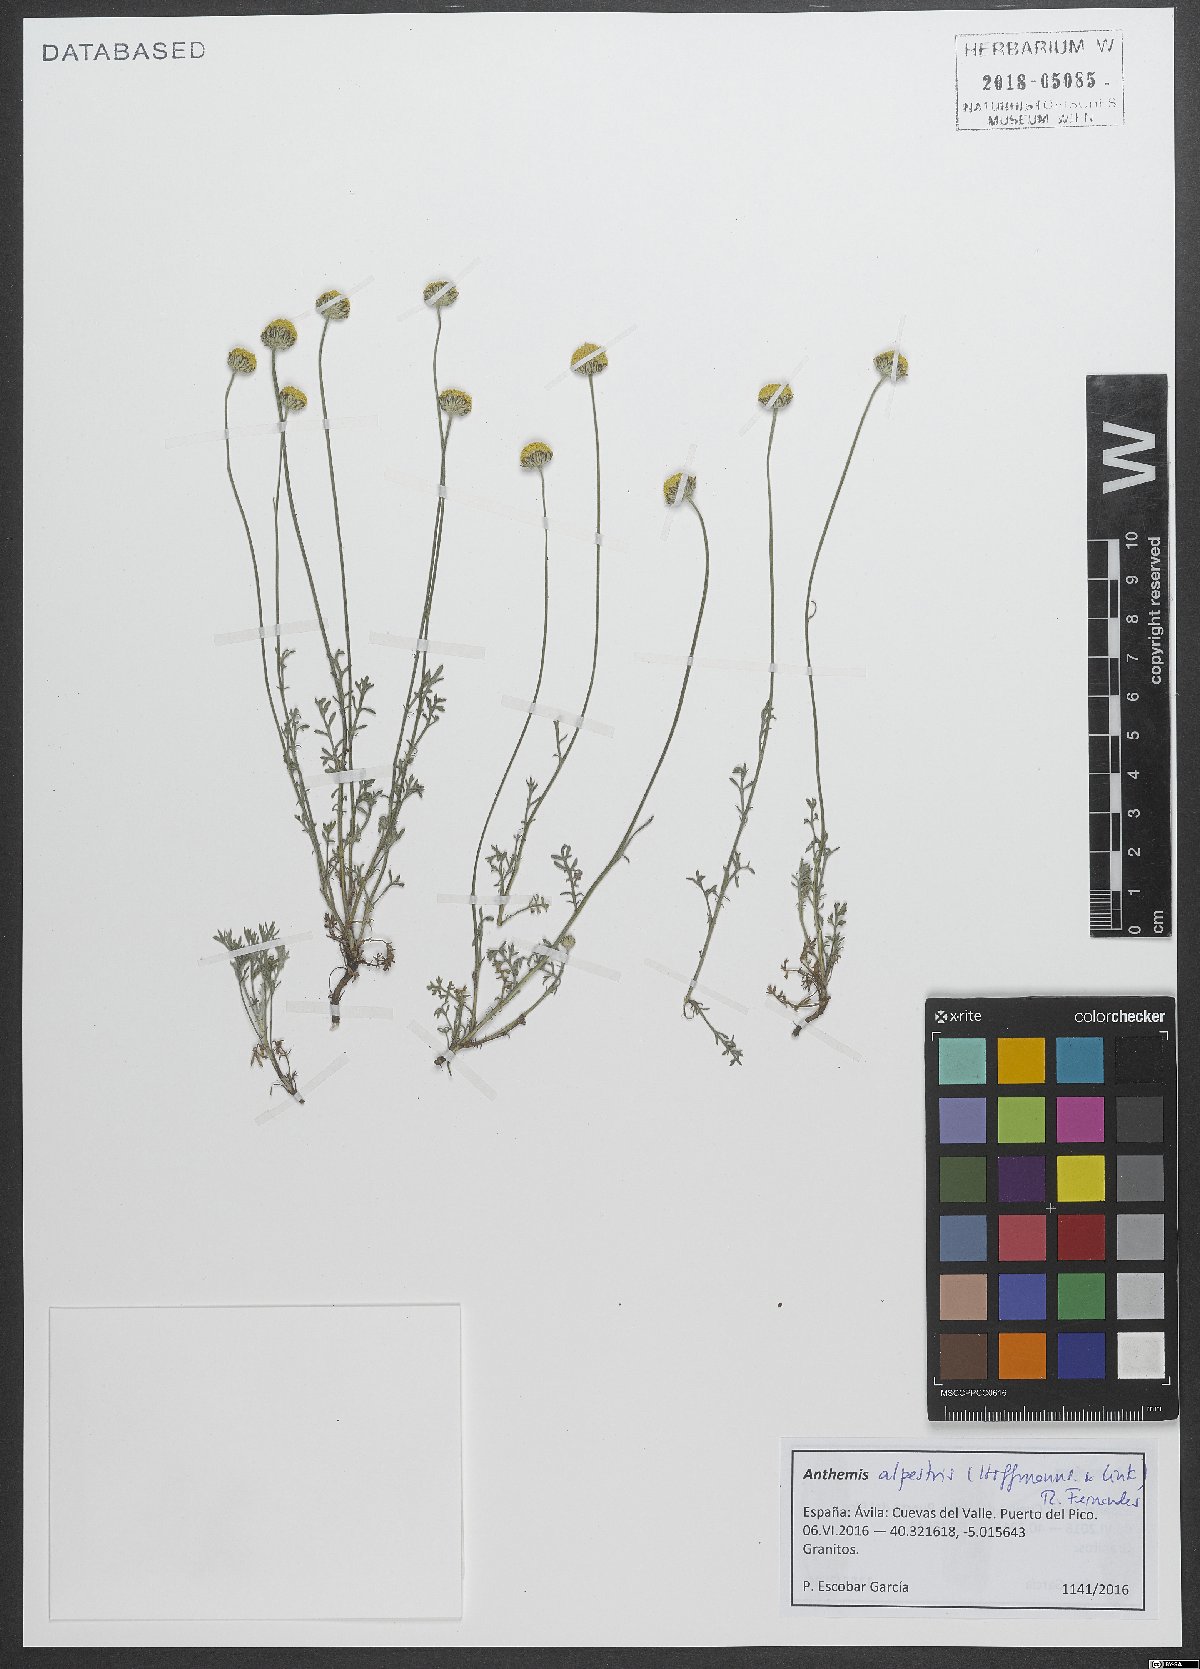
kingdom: Plantae
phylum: Tracheophyta
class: Magnoliopsida
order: Asterales
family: Asteraceae
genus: Anthemis
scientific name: Anthemis alpestris
